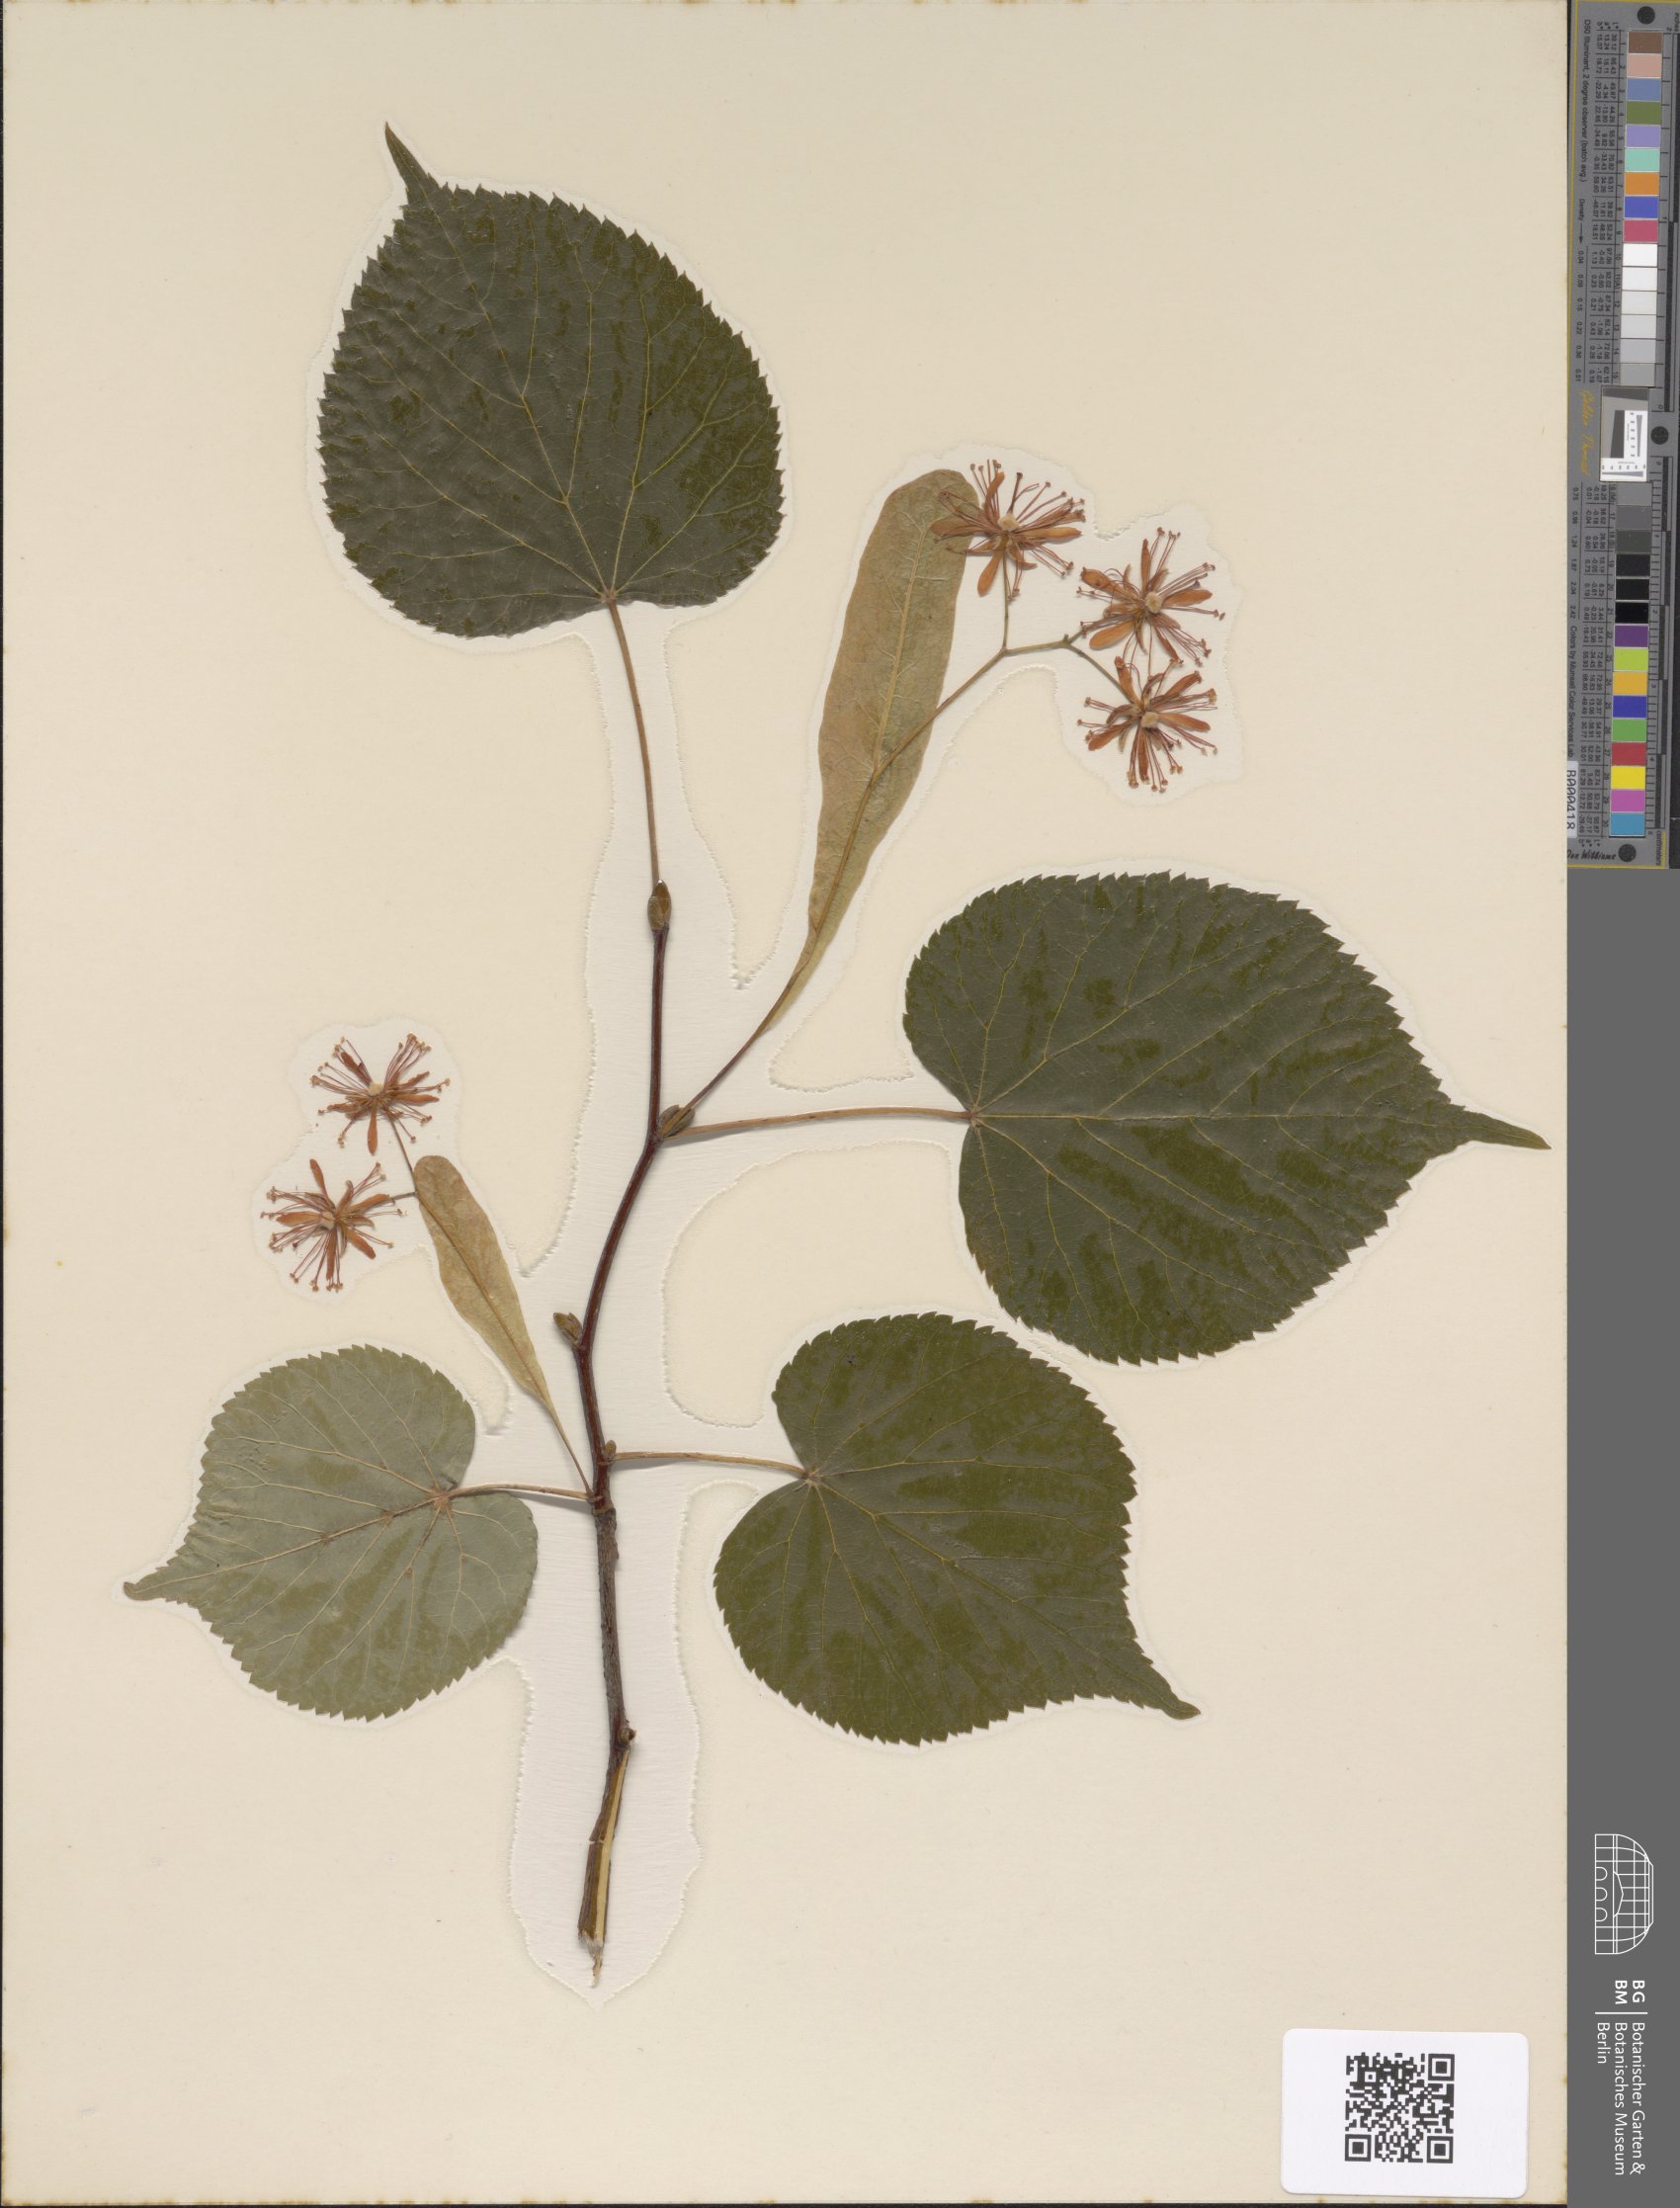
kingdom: Plantae
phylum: Tracheophyta
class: Magnoliopsida
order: Malvales
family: Malvaceae
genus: Tilia
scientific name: Tilia cordata
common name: Small-leaved lime
